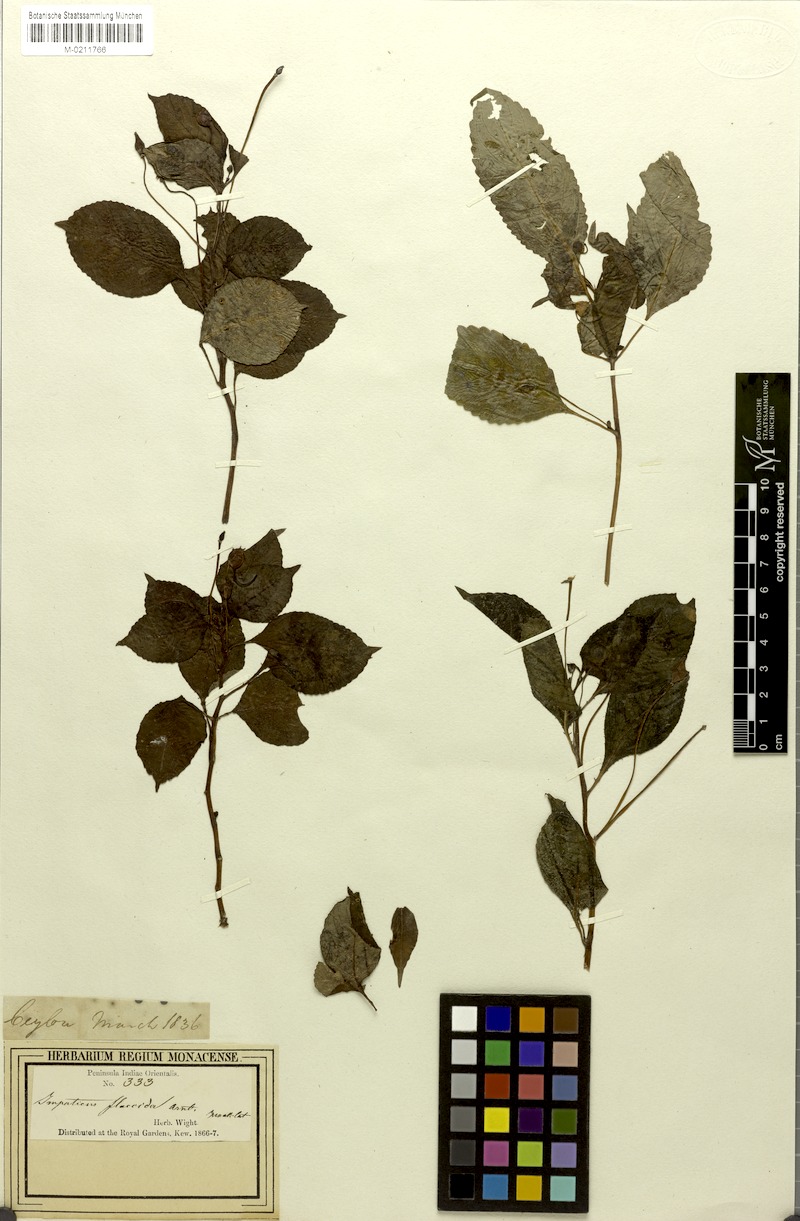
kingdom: Plantae
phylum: Tracheophyta
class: Magnoliopsida
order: Ericales
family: Balsaminaceae
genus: Impatiens
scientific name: Impatiens flaccida
